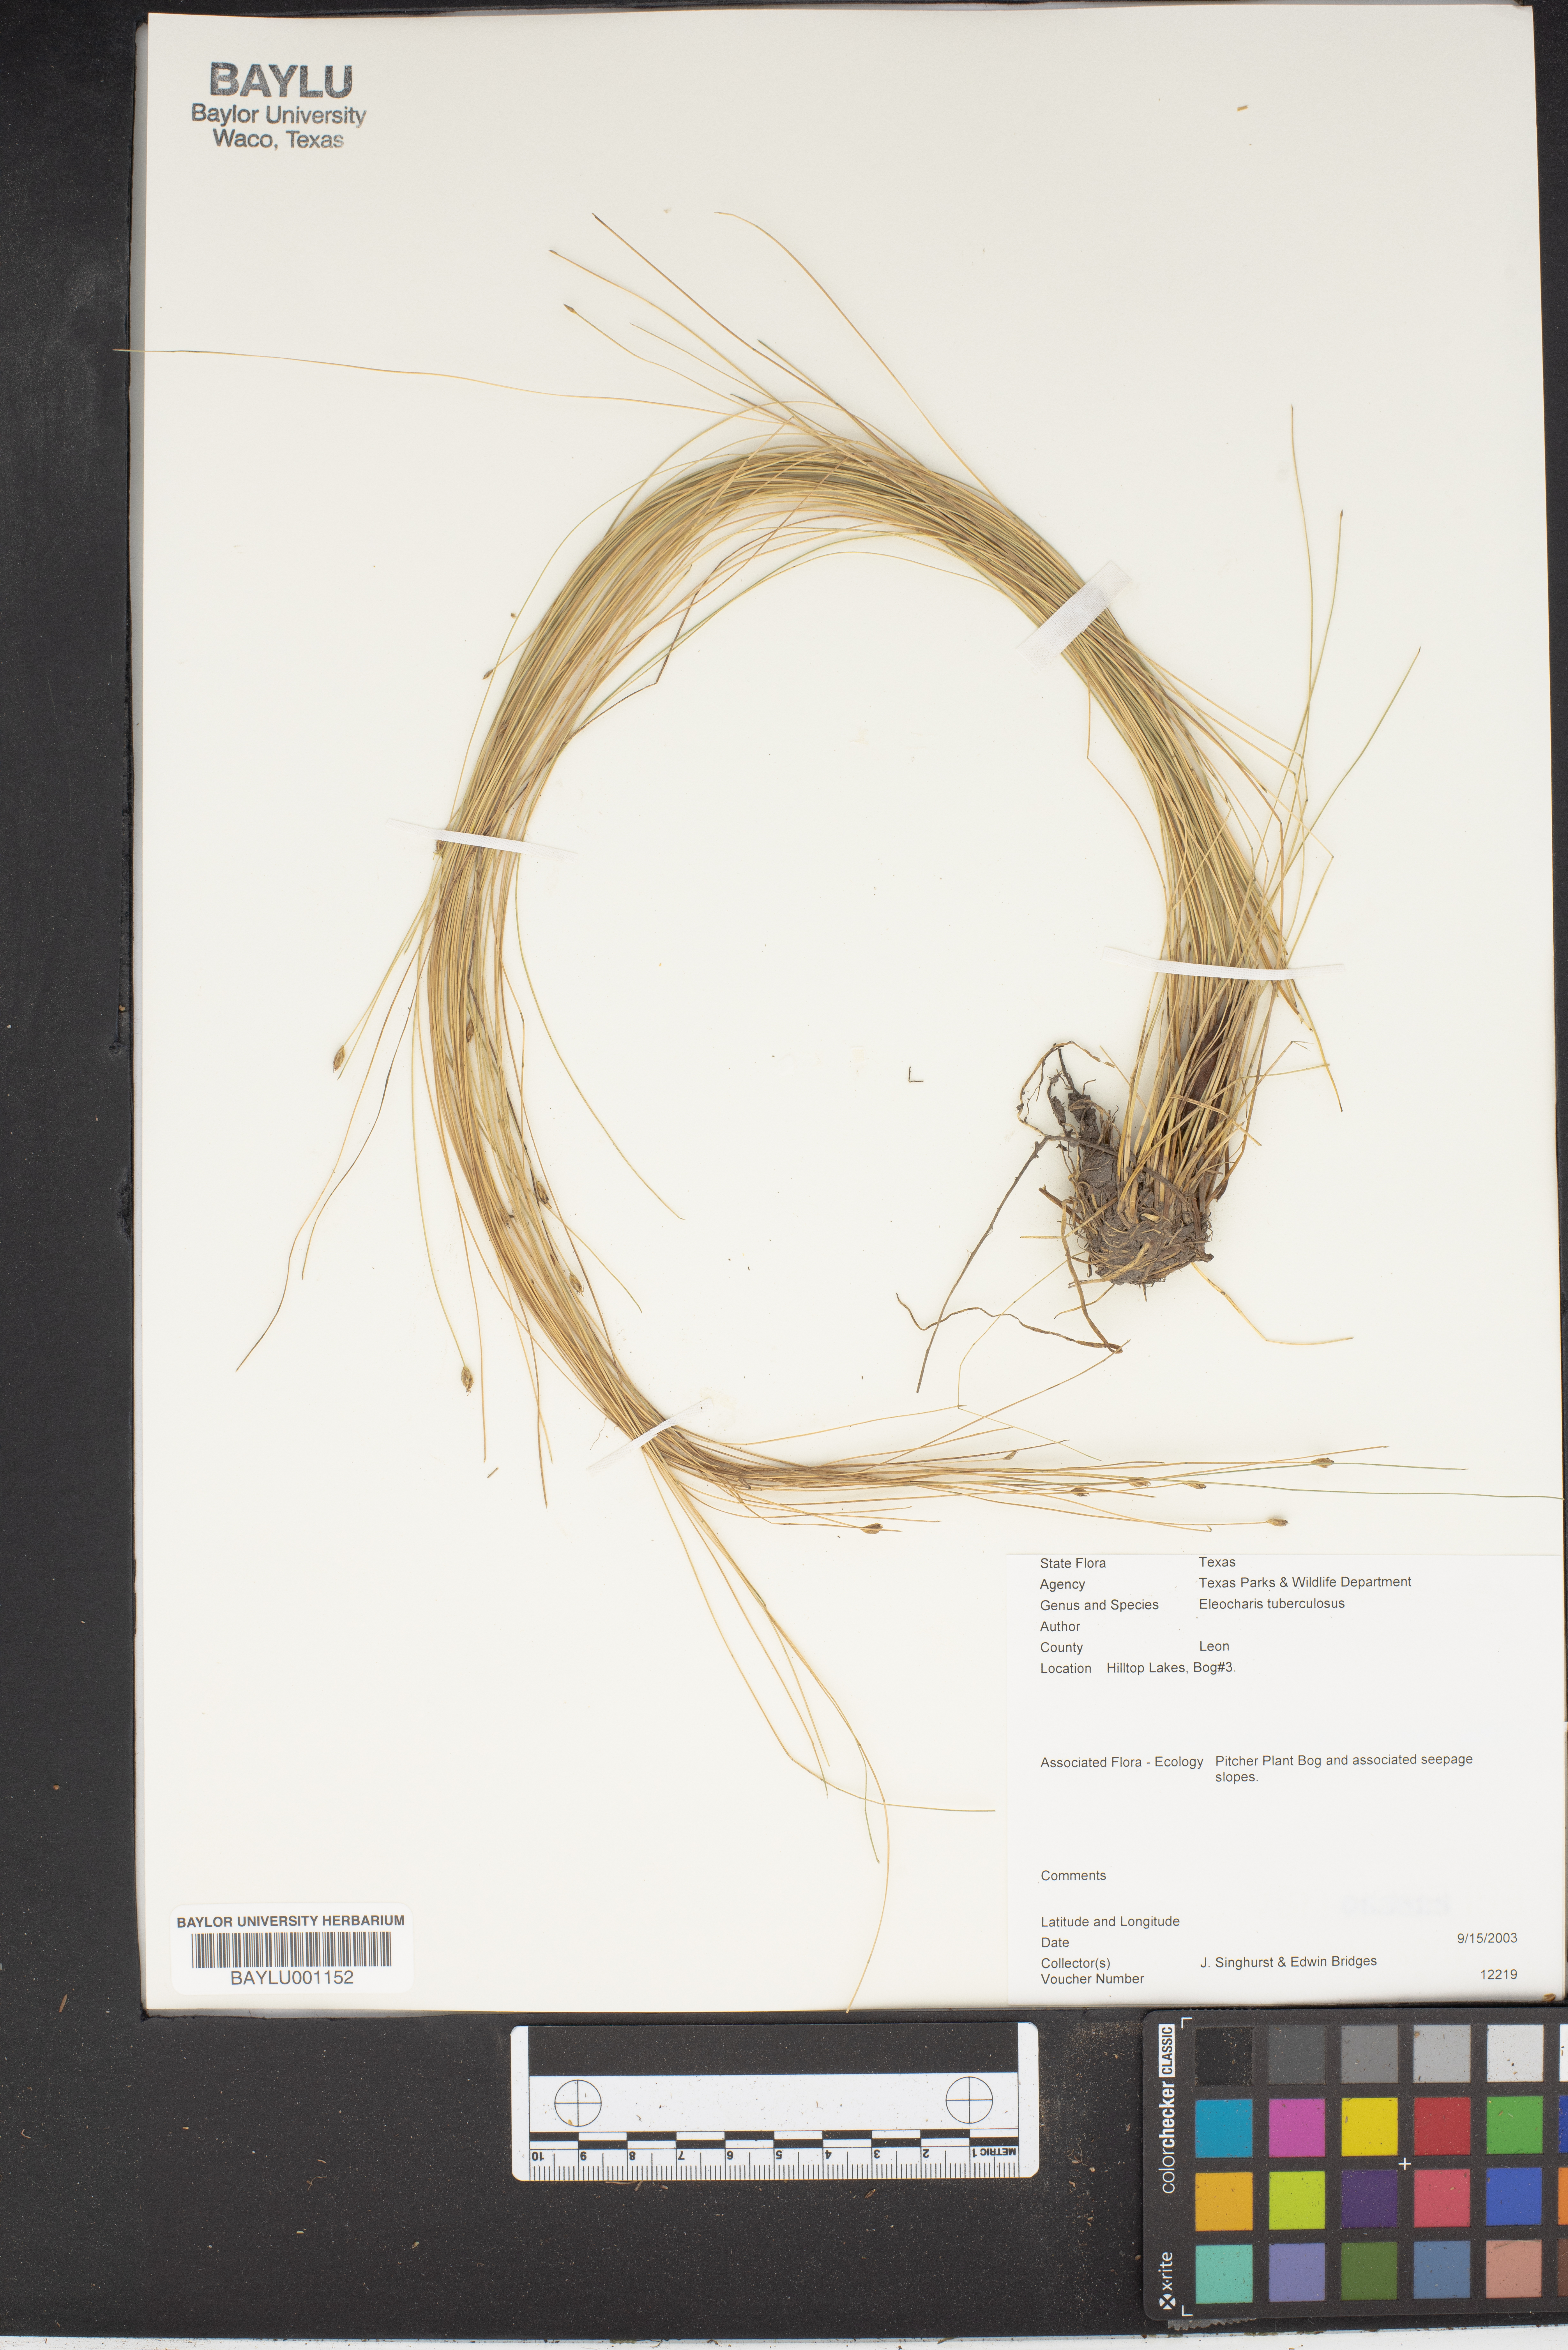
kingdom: Plantae
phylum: Tracheophyta
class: Liliopsida
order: Poales
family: Cyperaceae
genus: Eleocharis
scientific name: Eleocharis tuberculosa
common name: Cone-cup spikerush
